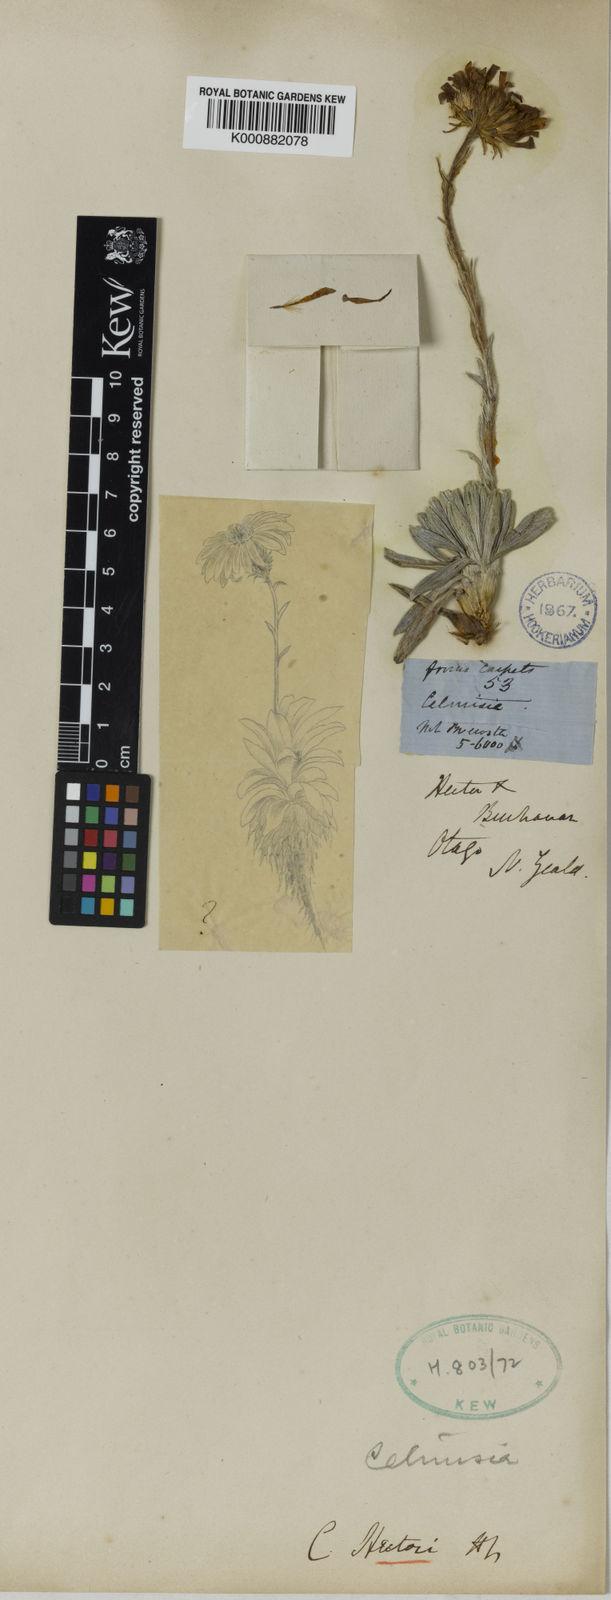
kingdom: Plantae
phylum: Tracheophyta
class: Magnoliopsida
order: Asterales
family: Asteraceae
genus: Celmisia
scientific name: Celmisia hectorii
